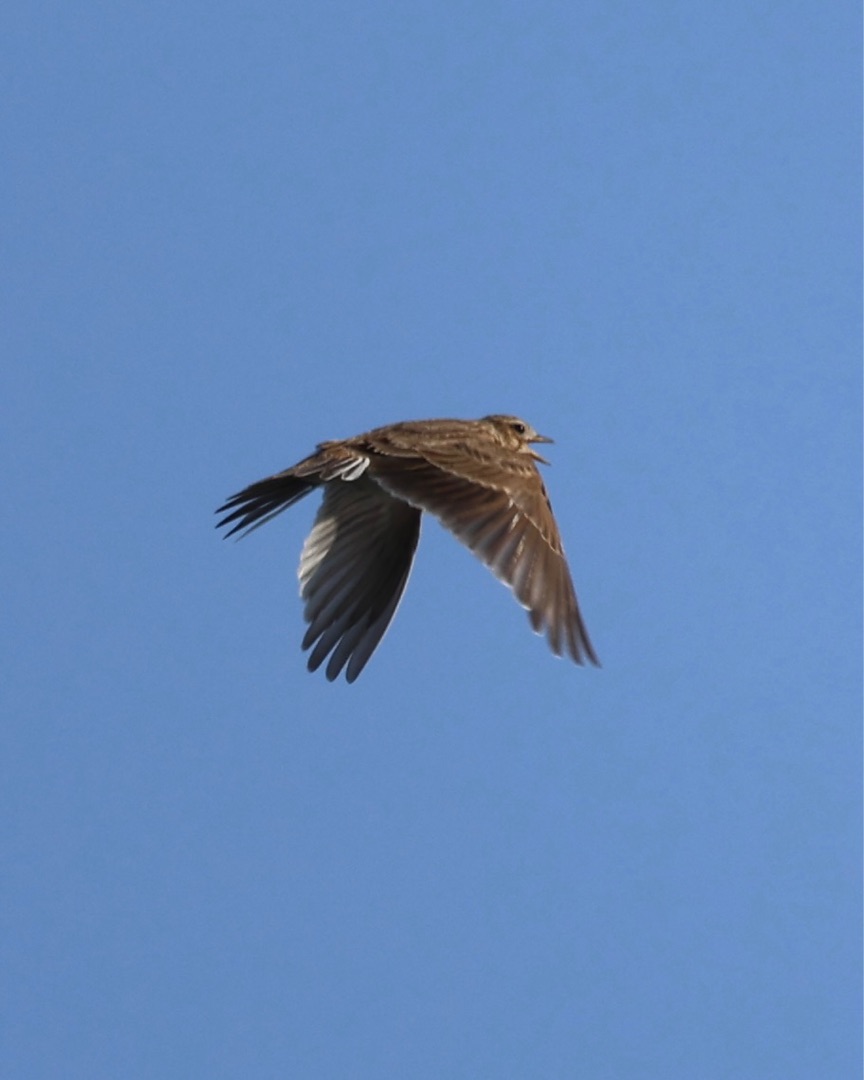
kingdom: Animalia
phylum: Chordata
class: Aves
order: Passeriformes
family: Alaudidae
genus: Alauda
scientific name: Alauda arvensis
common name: Sanglærke
